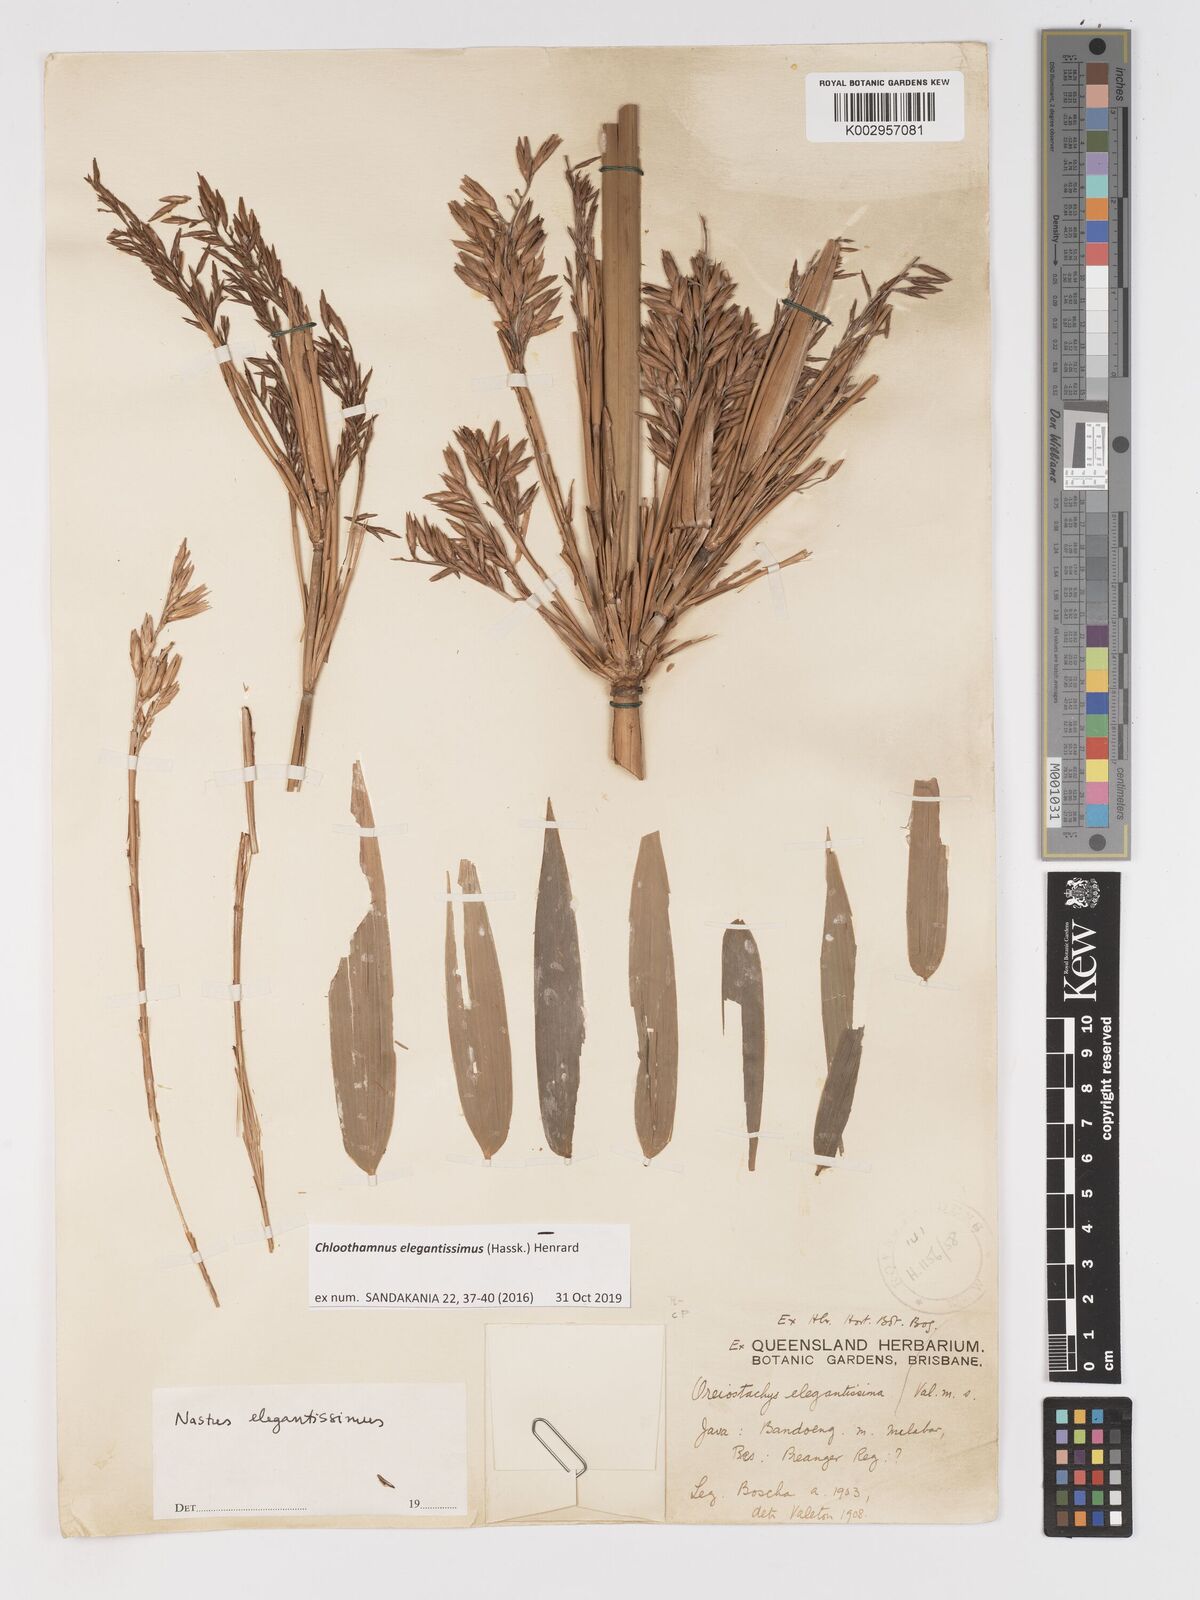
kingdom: Plantae
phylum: Tracheophyta
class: Liliopsida
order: Poales
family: Poaceae
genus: Chloothamnus
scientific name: Chloothamnus elegantissimus
